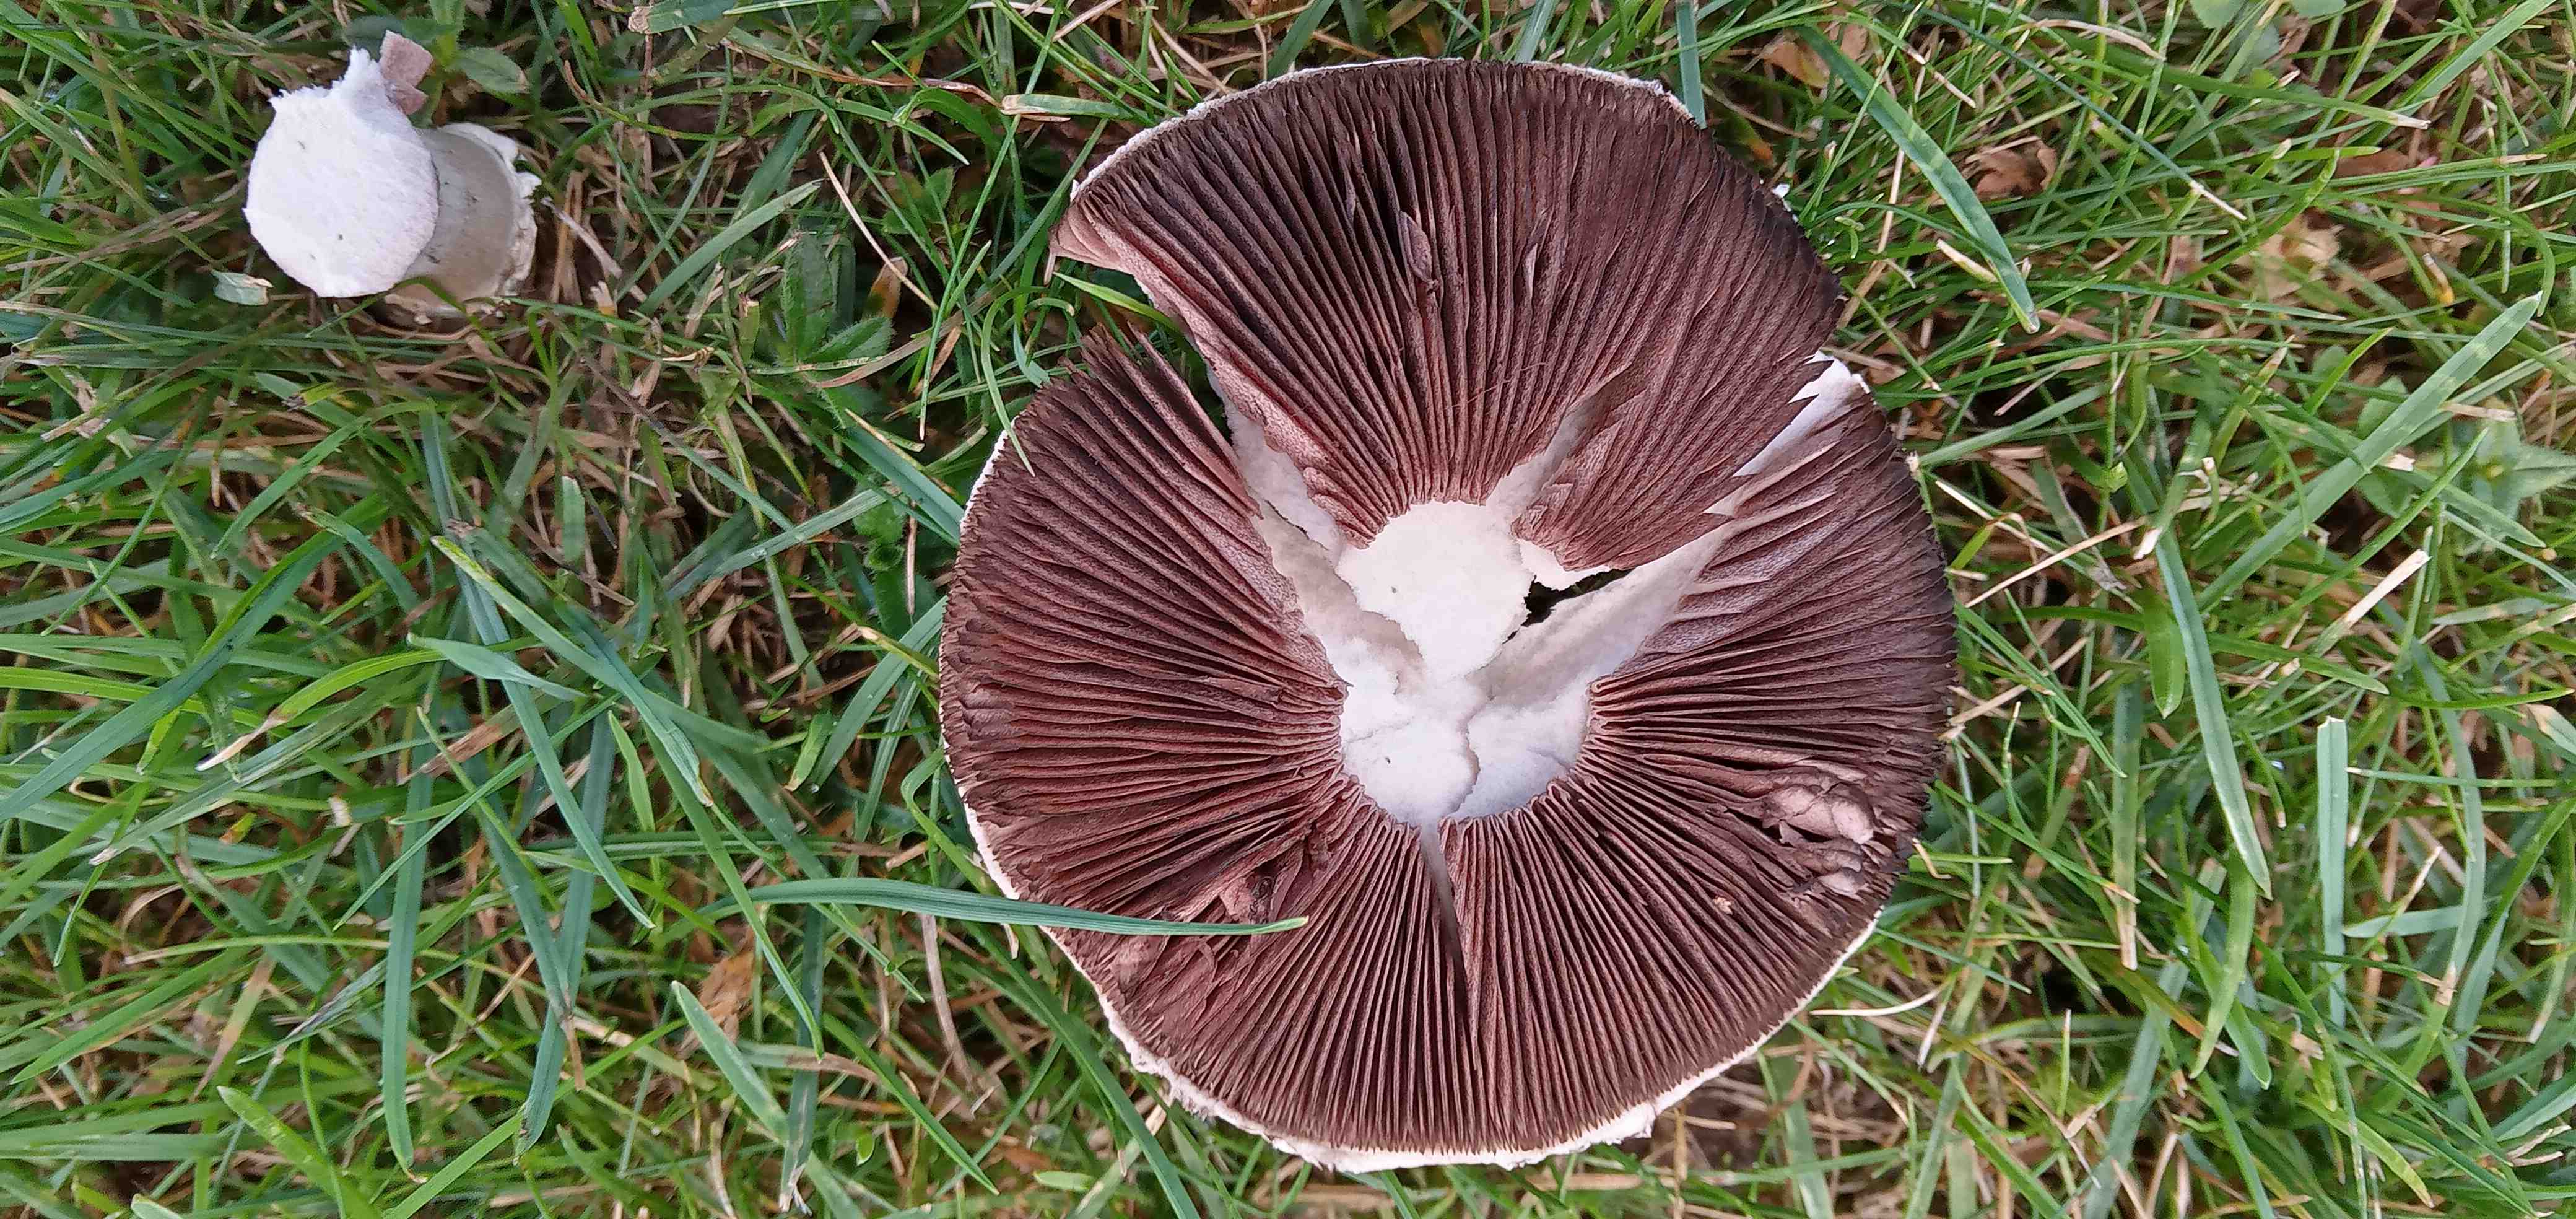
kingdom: Fungi
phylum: Basidiomycota
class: Agaricomycetes
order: Agaricales
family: Agaricaceae
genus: Agaricus
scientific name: Agaricus
